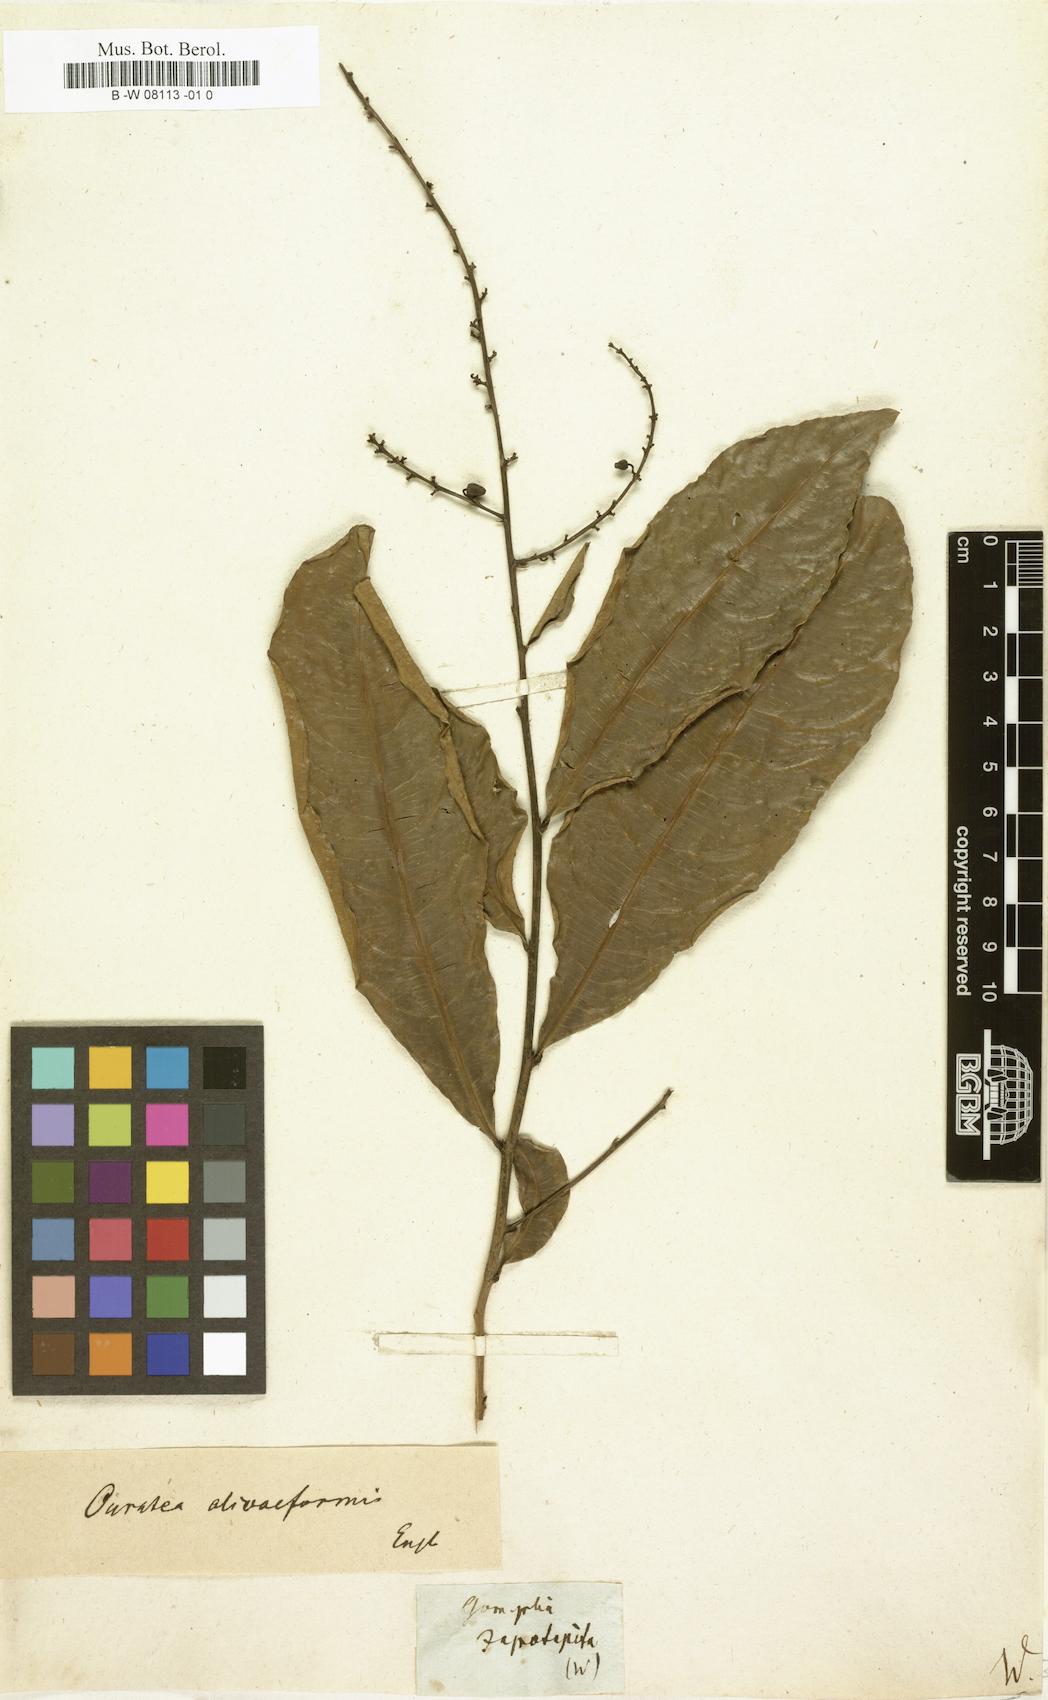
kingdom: Plantae
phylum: Tracheophyta
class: Magnoliopsida
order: Malpighiales
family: Ochnaceae
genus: Ochna
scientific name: Ochna jabotapita
